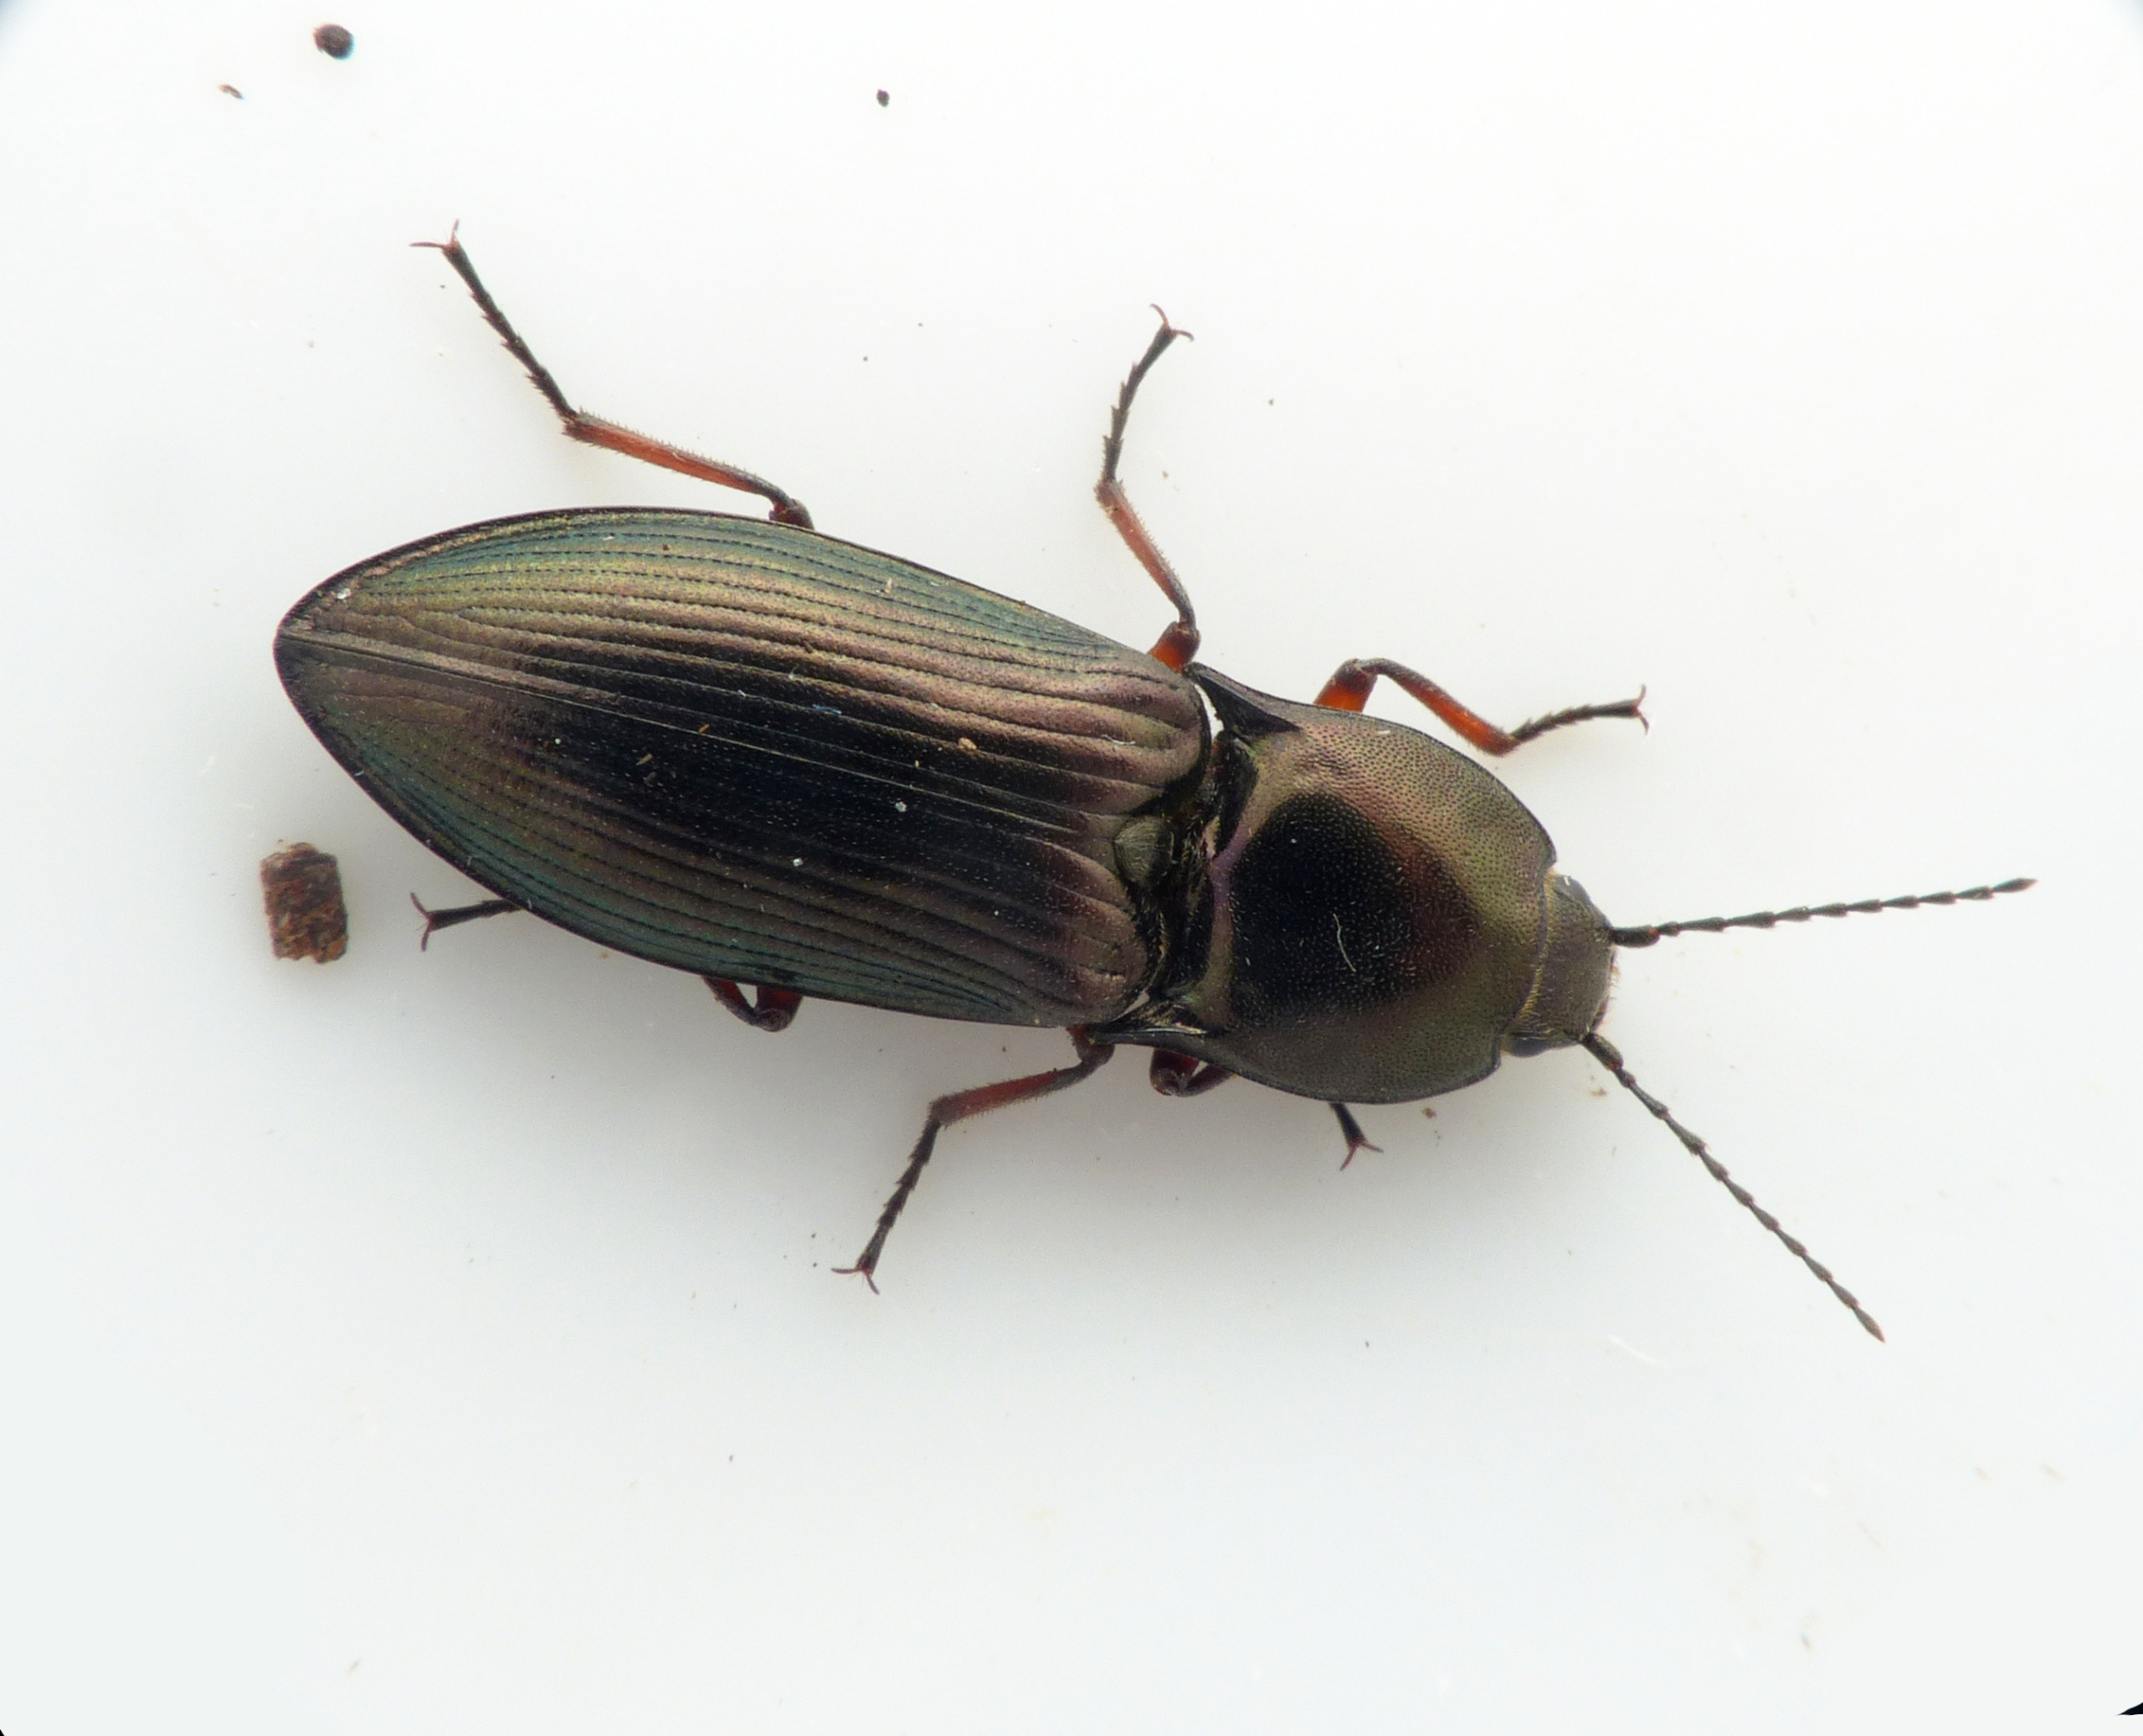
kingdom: Animalia
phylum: Arthropoda
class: Insecta
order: Coleoptera
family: Elateridae
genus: Selatosomus
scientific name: Selatosomus aeneus
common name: Kobbersmælder
